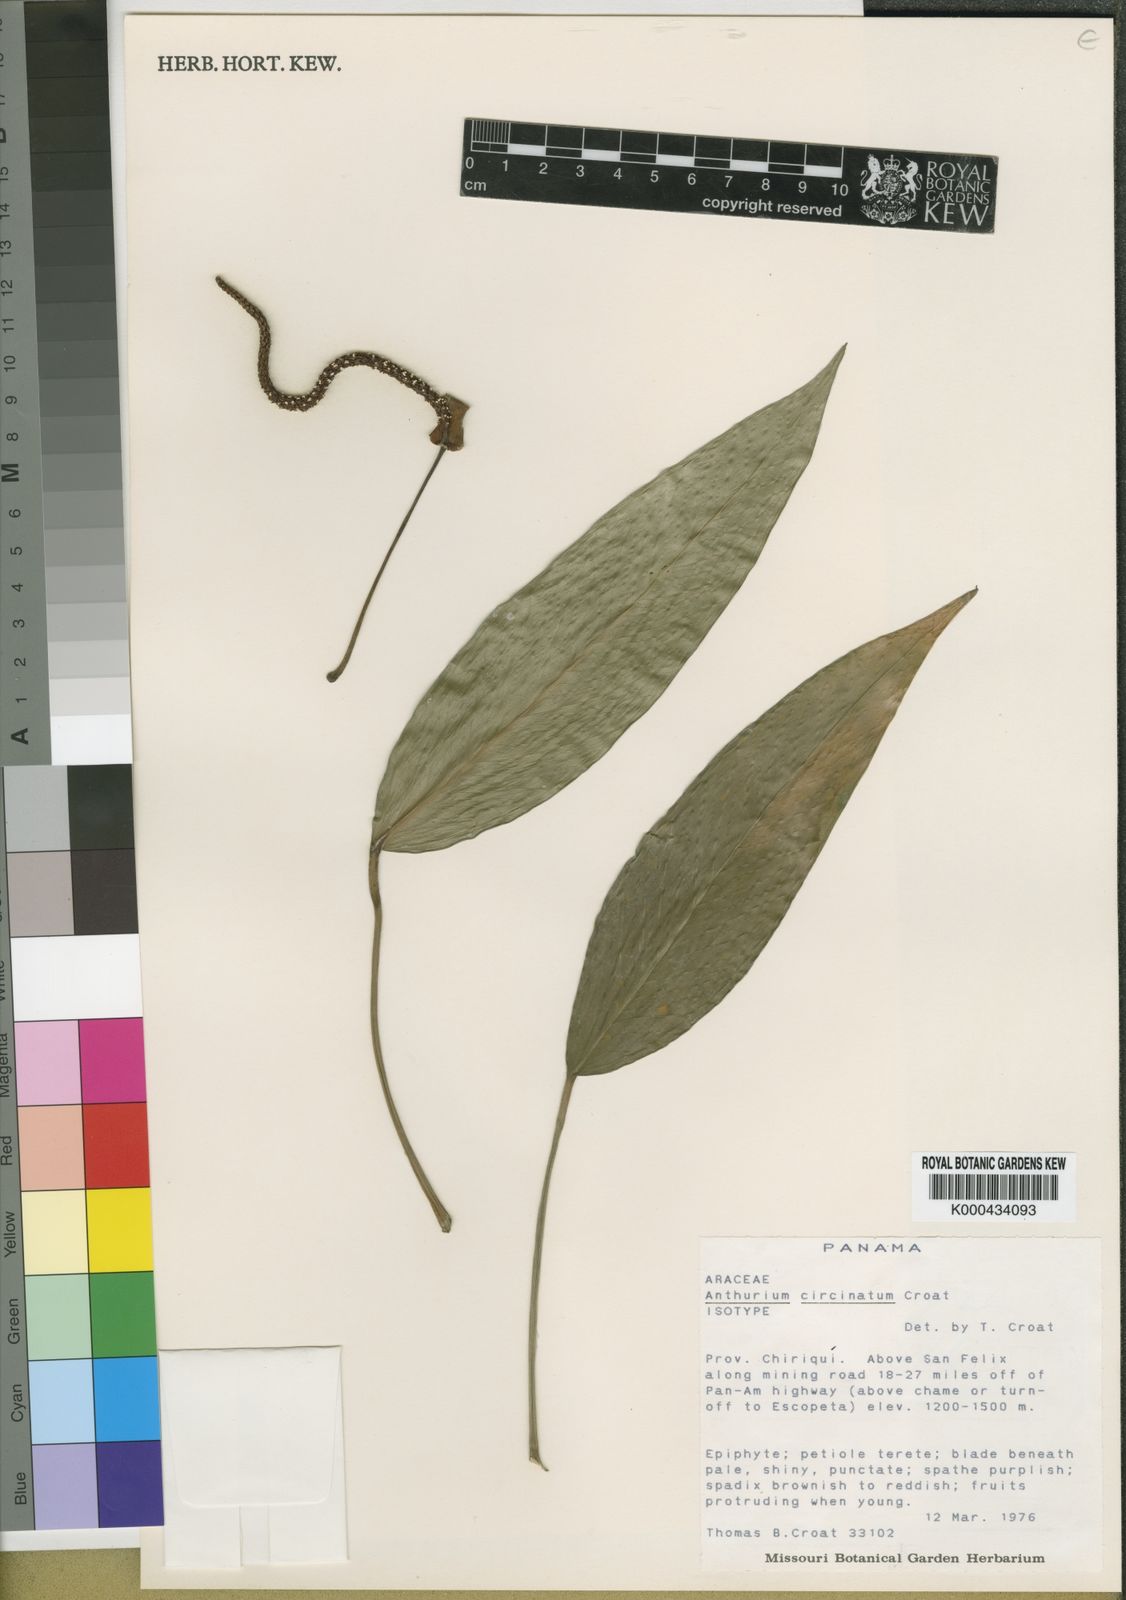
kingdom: Plantae
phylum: Tracheophyta
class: Liliopsida
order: Alismatales
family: Araceae
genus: Anthurium
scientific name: Anthurium circinatum
